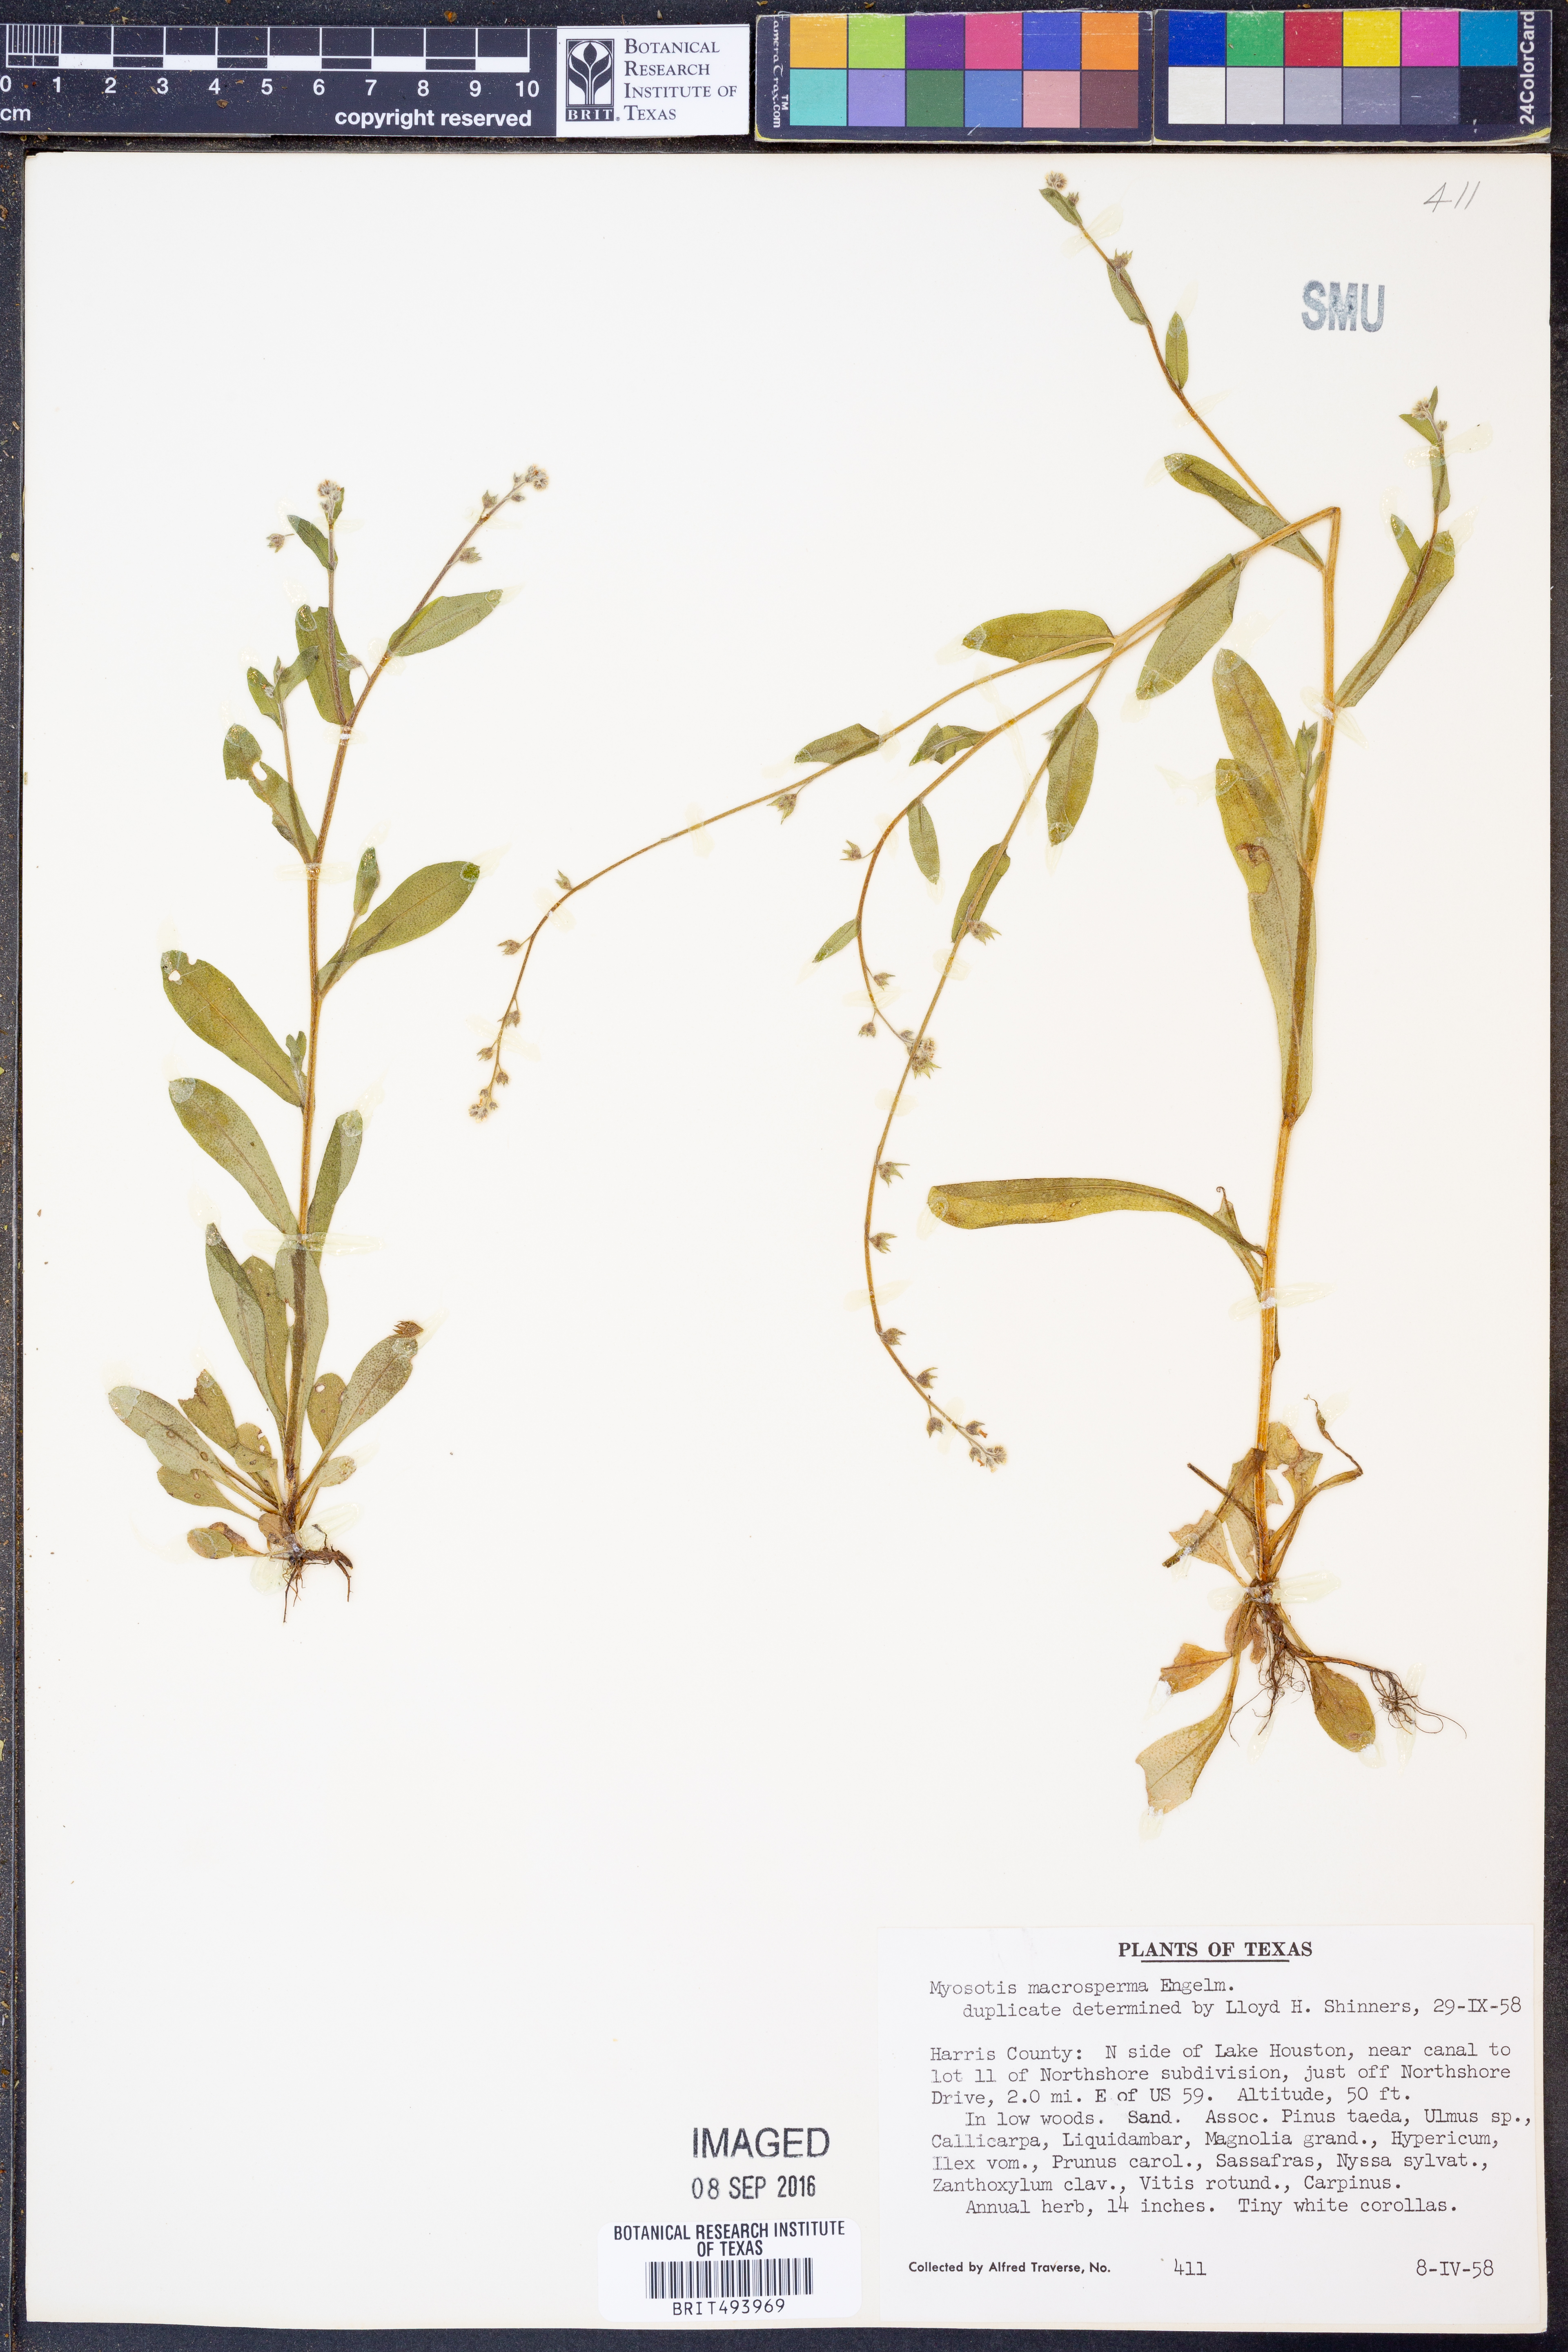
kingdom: Plantae
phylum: Tracheophyta
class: Magnoliopsida
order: Boraginales
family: Boraginaceae
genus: Myosotis
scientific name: Myosotis macrosperma
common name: Large-seed forget-me-not
